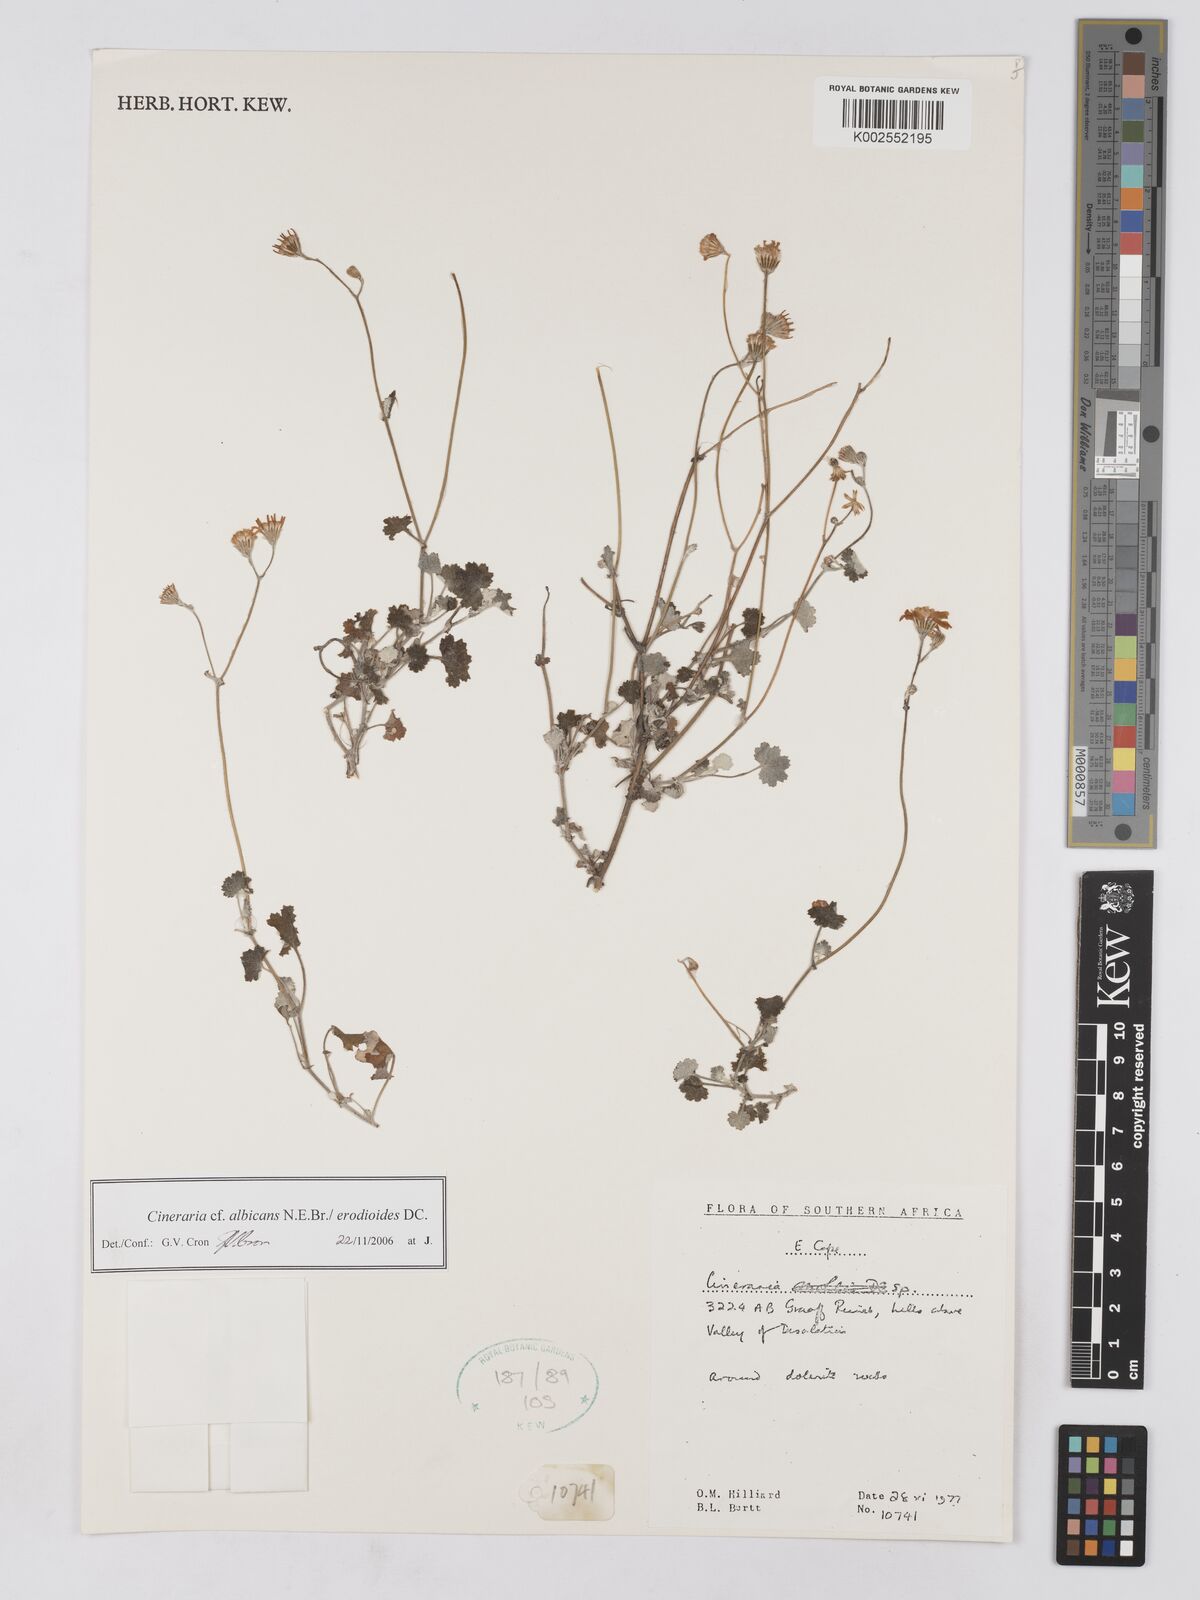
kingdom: Plantae
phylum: Tracheophyta
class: Magnoliopsida
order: Asterales
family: Asteraceae
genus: Cineraria
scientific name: Cineraria albicans
